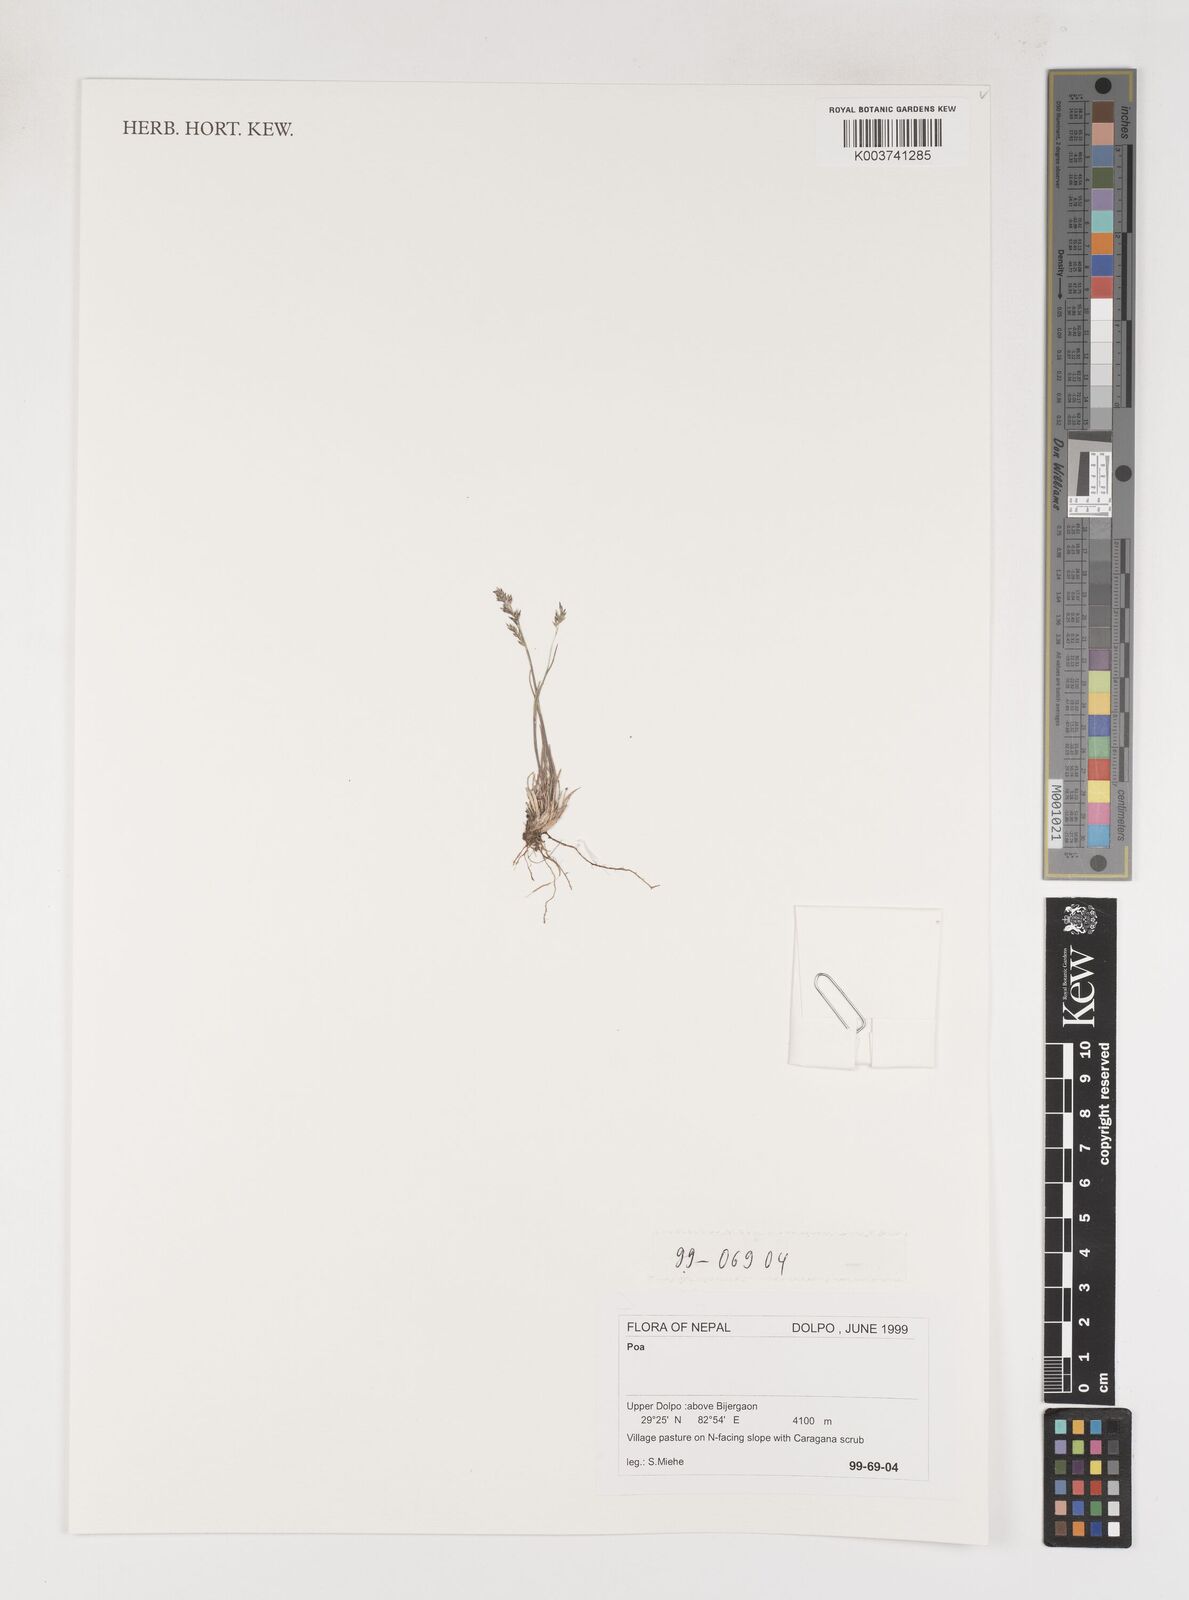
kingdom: Plantae
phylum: Tracheophyta
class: Liliopsida
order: Poales
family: Poaceae
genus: Poa
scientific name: Poa
